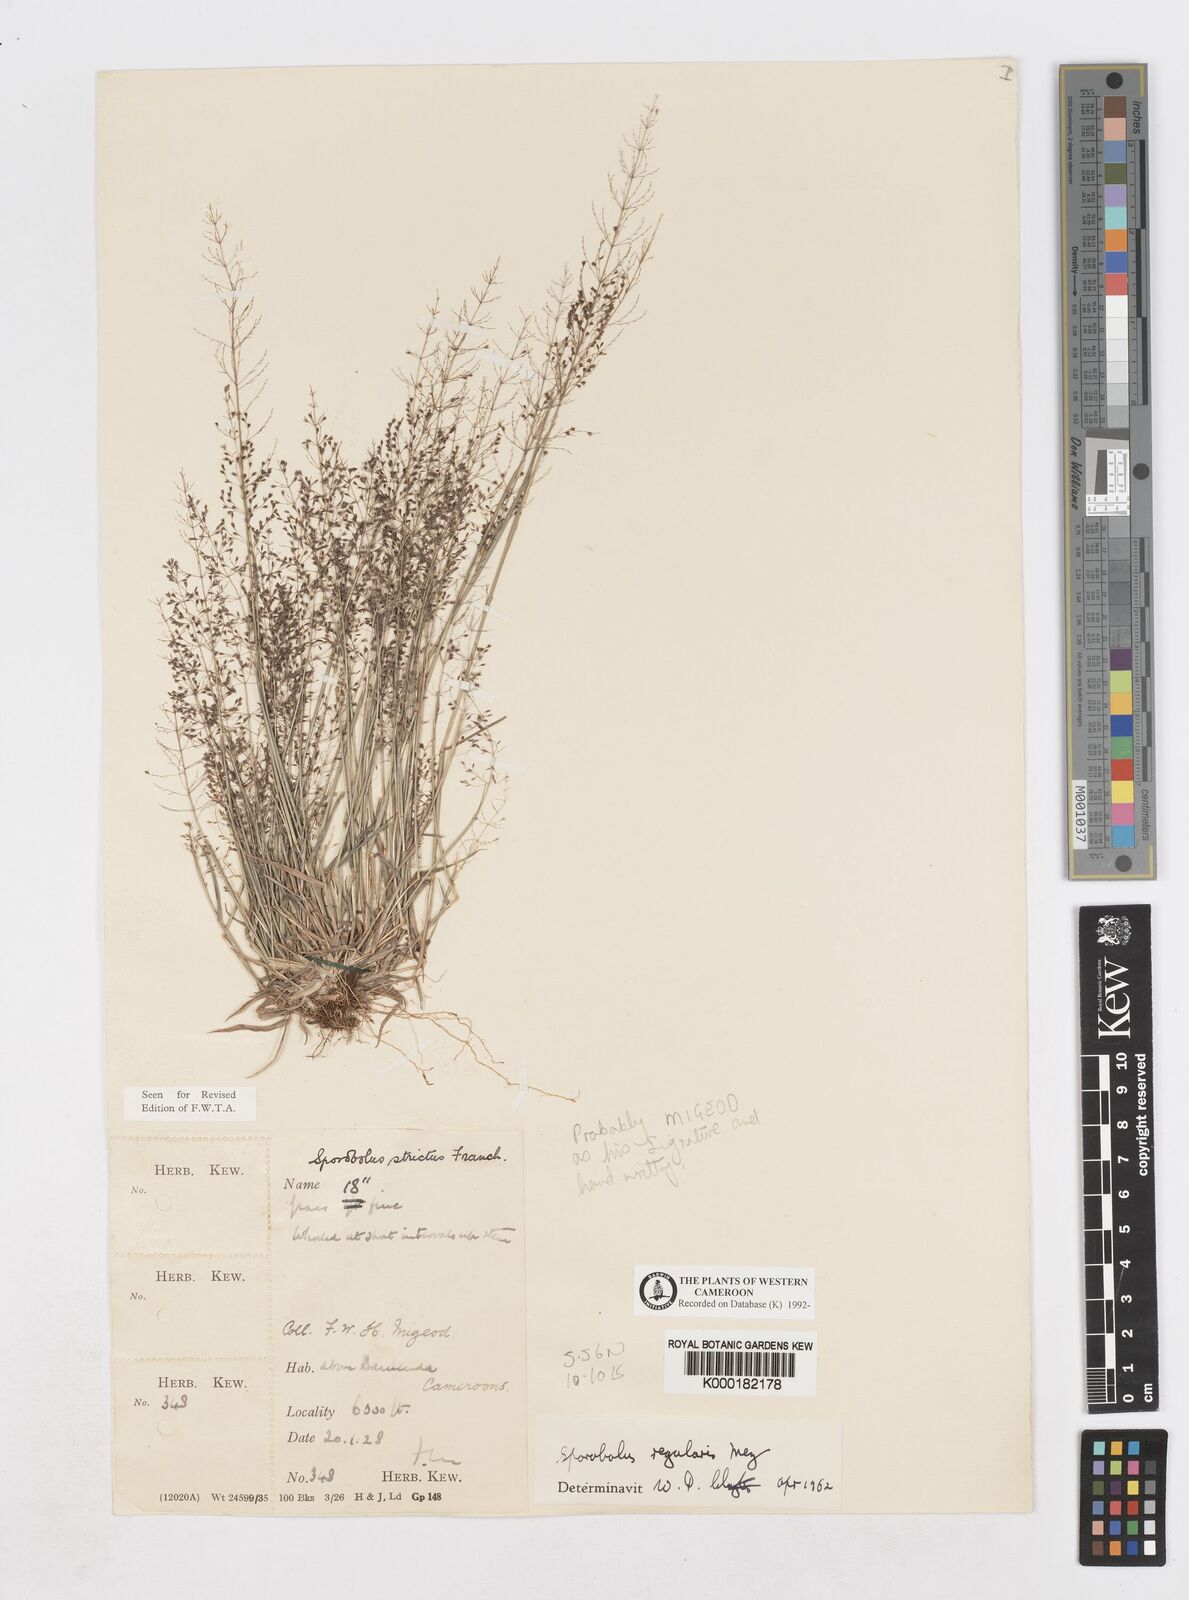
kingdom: Plantae
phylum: Tracheophyta
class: Liliopsida
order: Poales
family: Poaceae
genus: Sporobolus
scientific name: Sporobolus paniculatus
